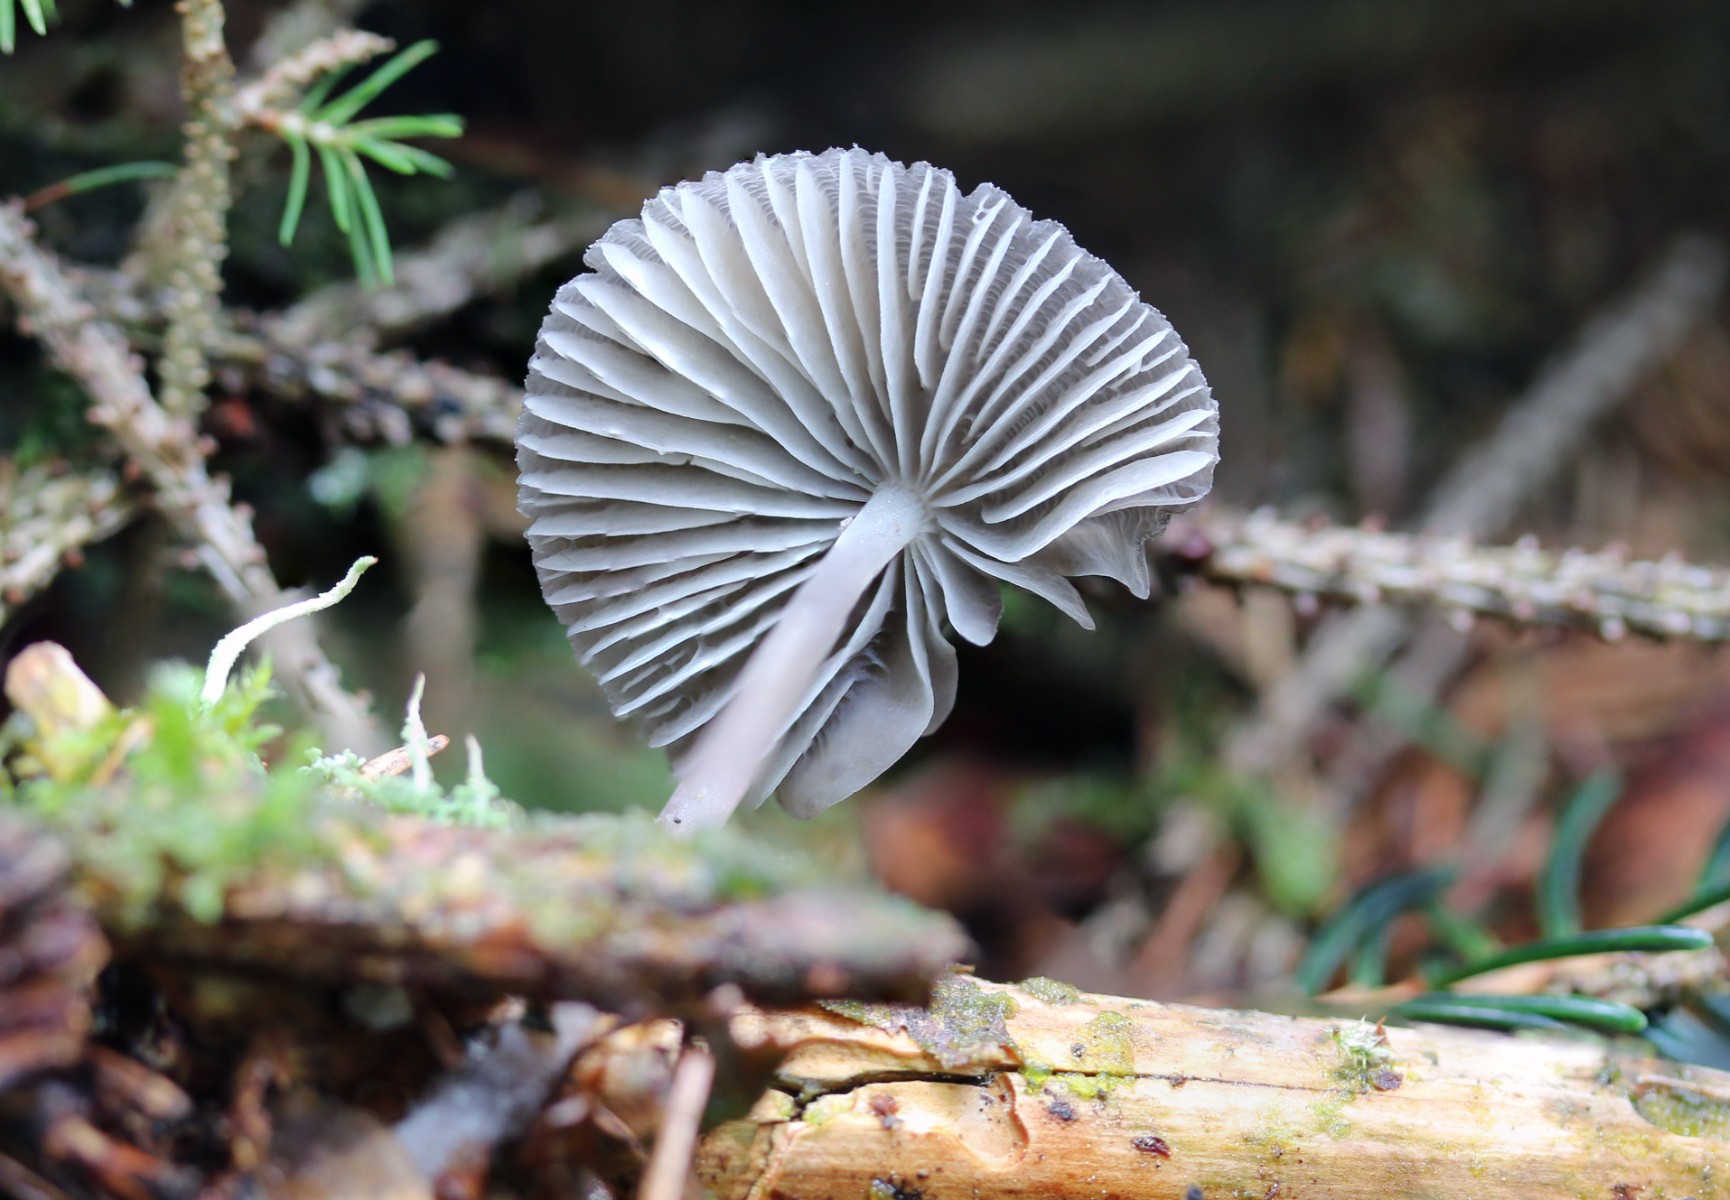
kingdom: Fungi
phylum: Basidiomycota
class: Agaricomycetes
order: Agaricales
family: Mycenaceae
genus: Mycena
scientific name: Mycena leptocephala
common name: klor-huesvamp
